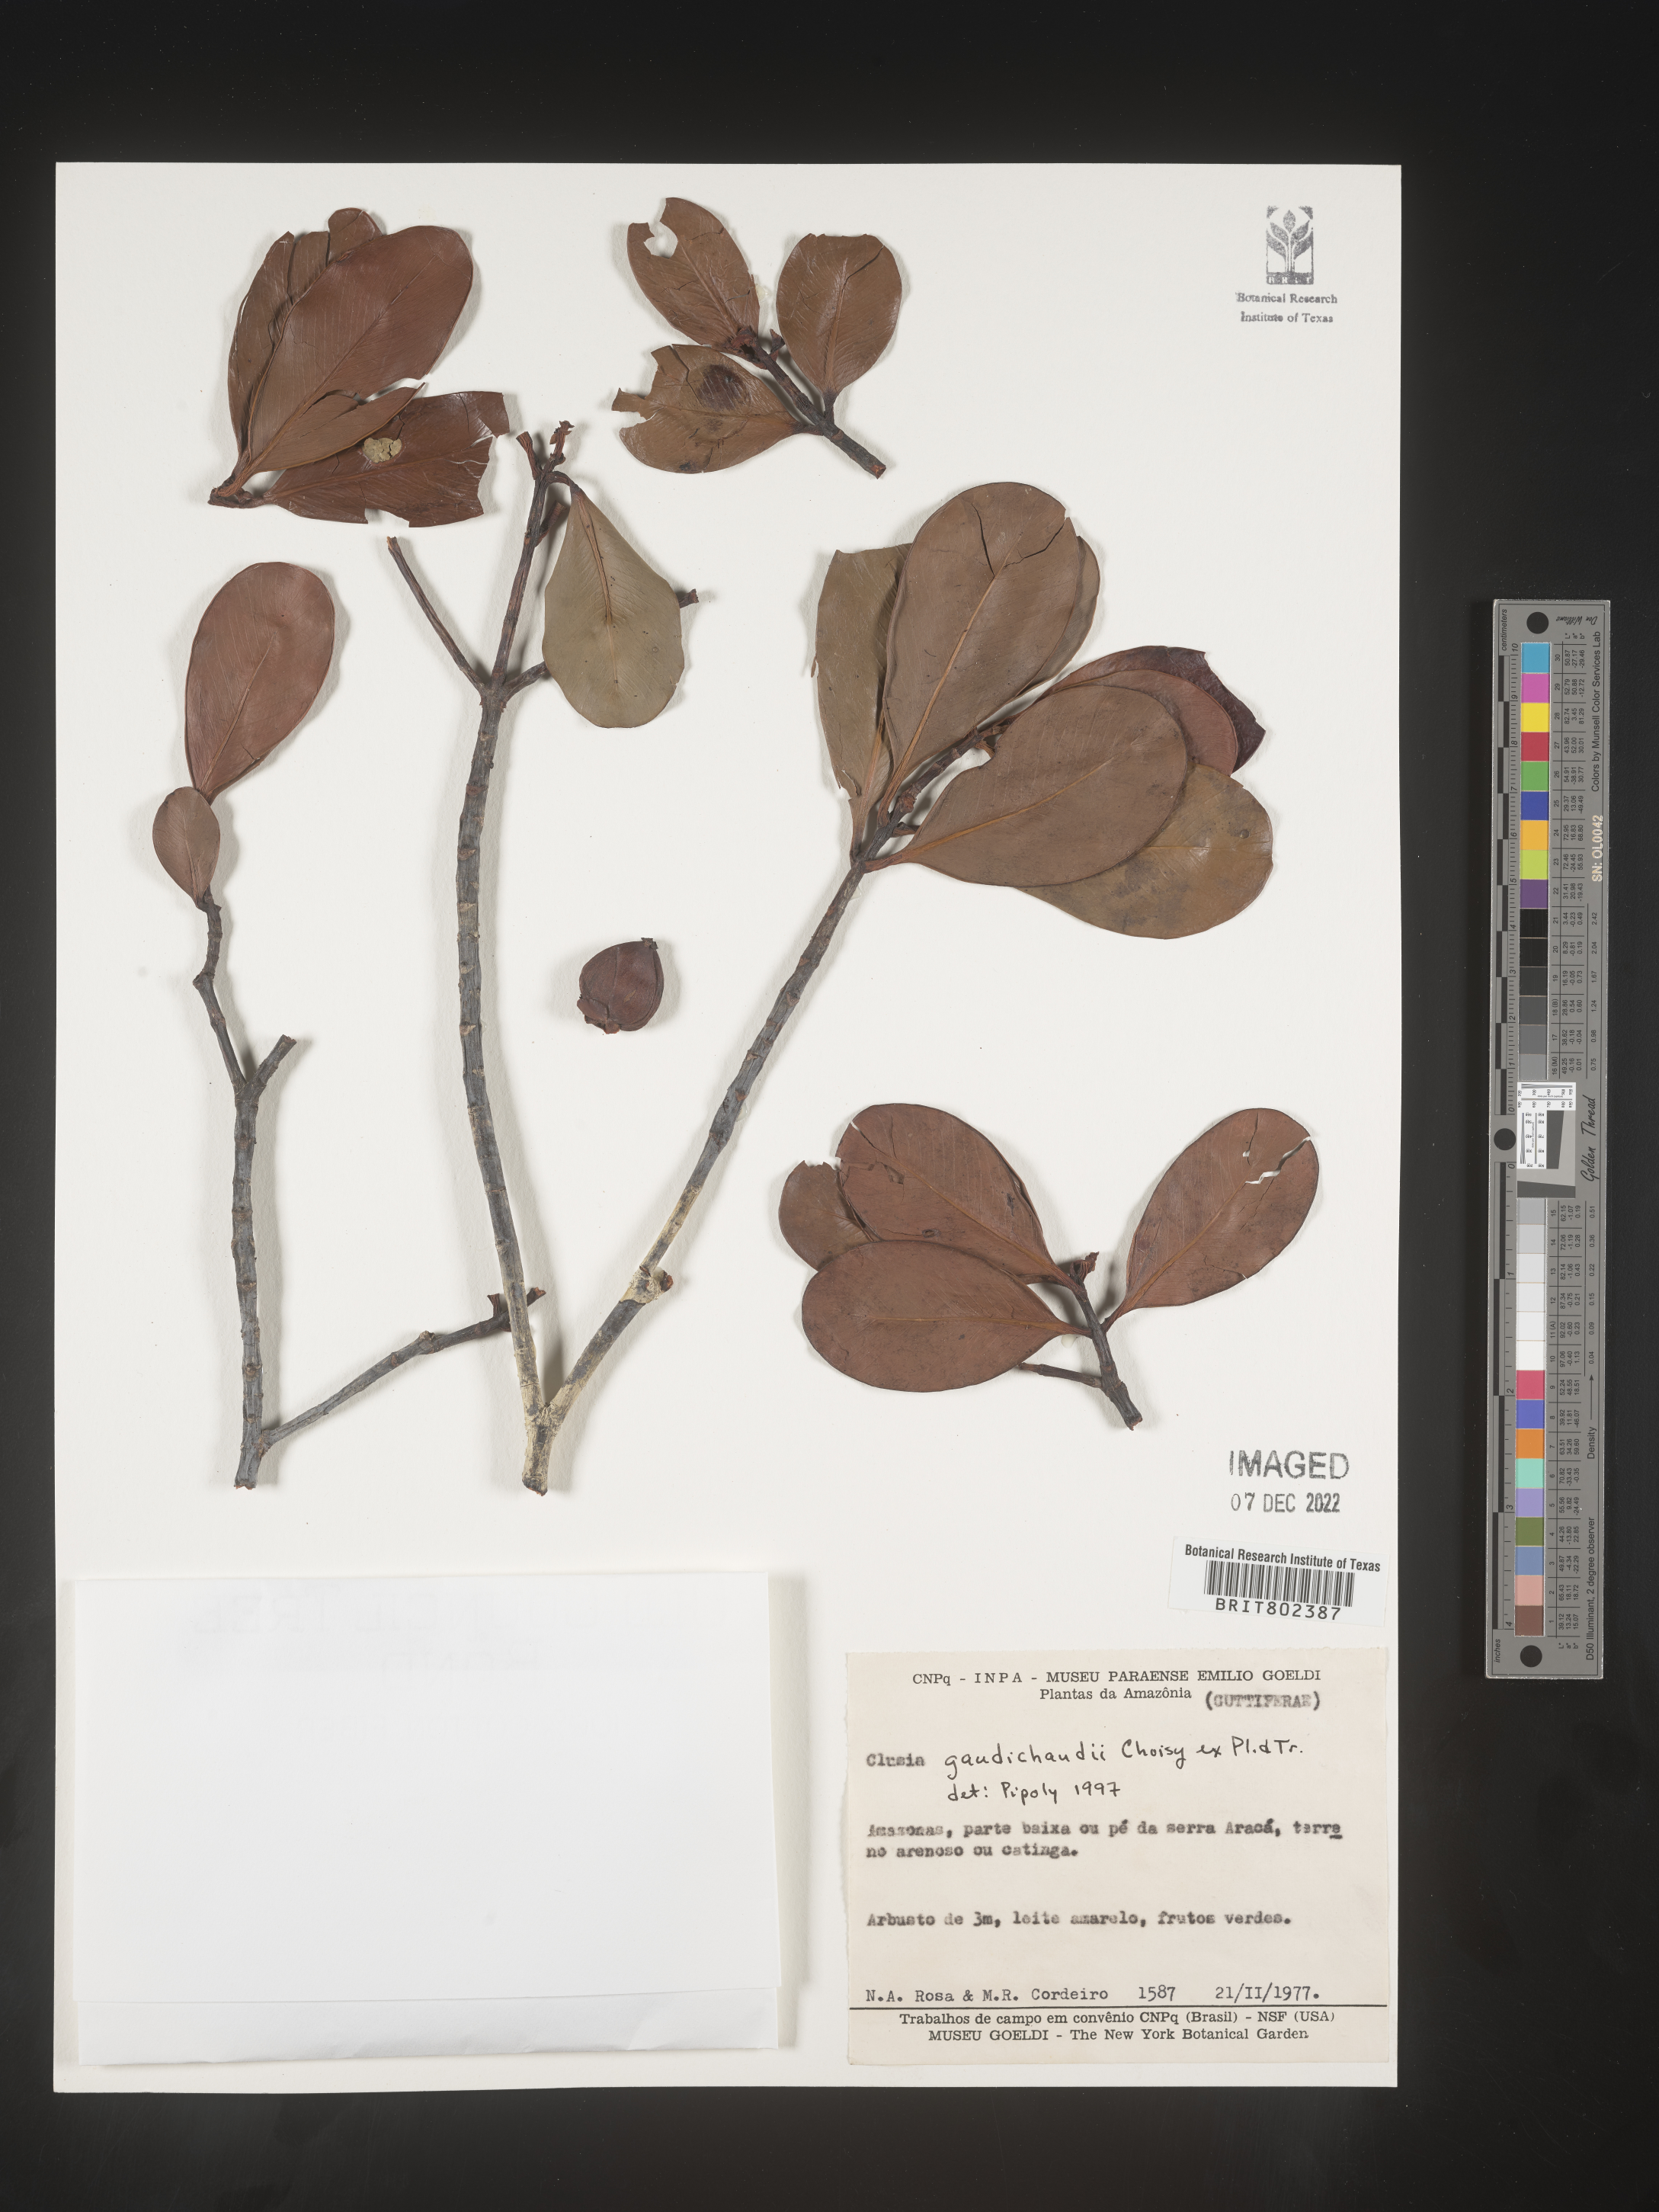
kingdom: Plantae
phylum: Tracheophyta
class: Magnoliopsida
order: Malpighiales
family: Clusiaceae
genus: Clusia
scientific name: Clusia
